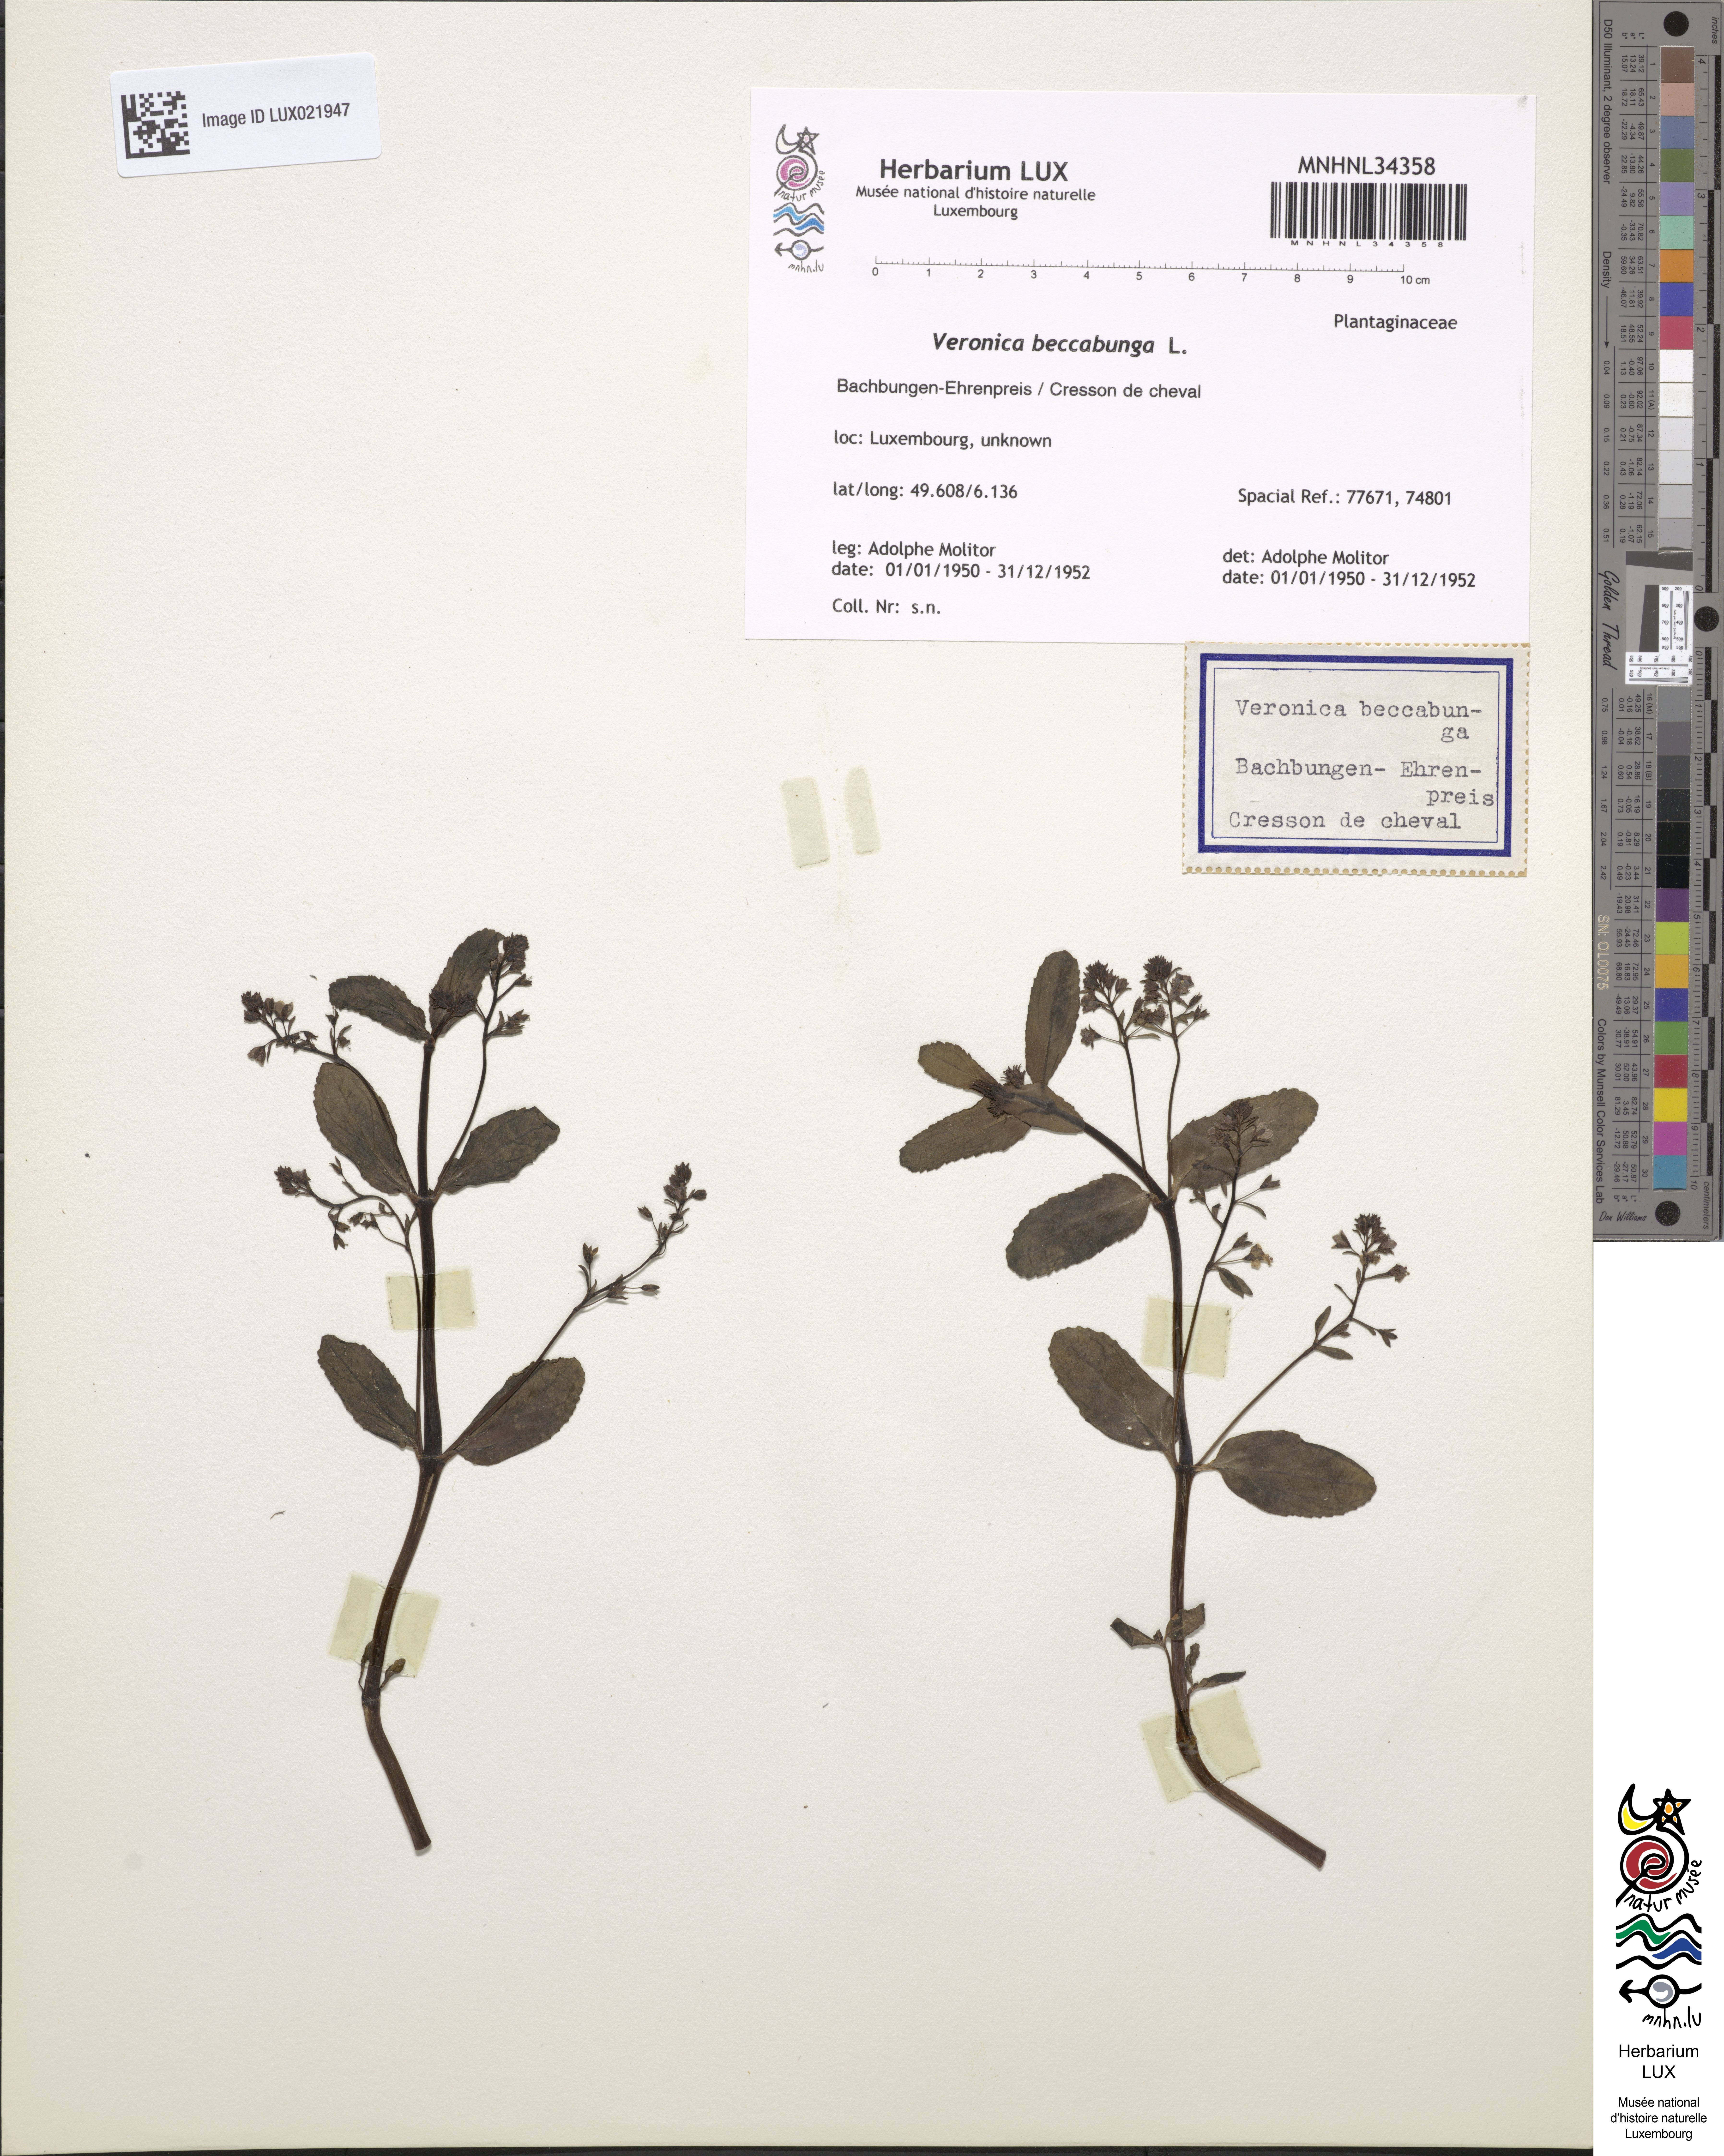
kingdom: Plantae
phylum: Tracheophyta
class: Magnoliopsida
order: Lamiales
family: Plantaginaceae
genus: Veronica
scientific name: Veronica beccabunga
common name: Brooklime
